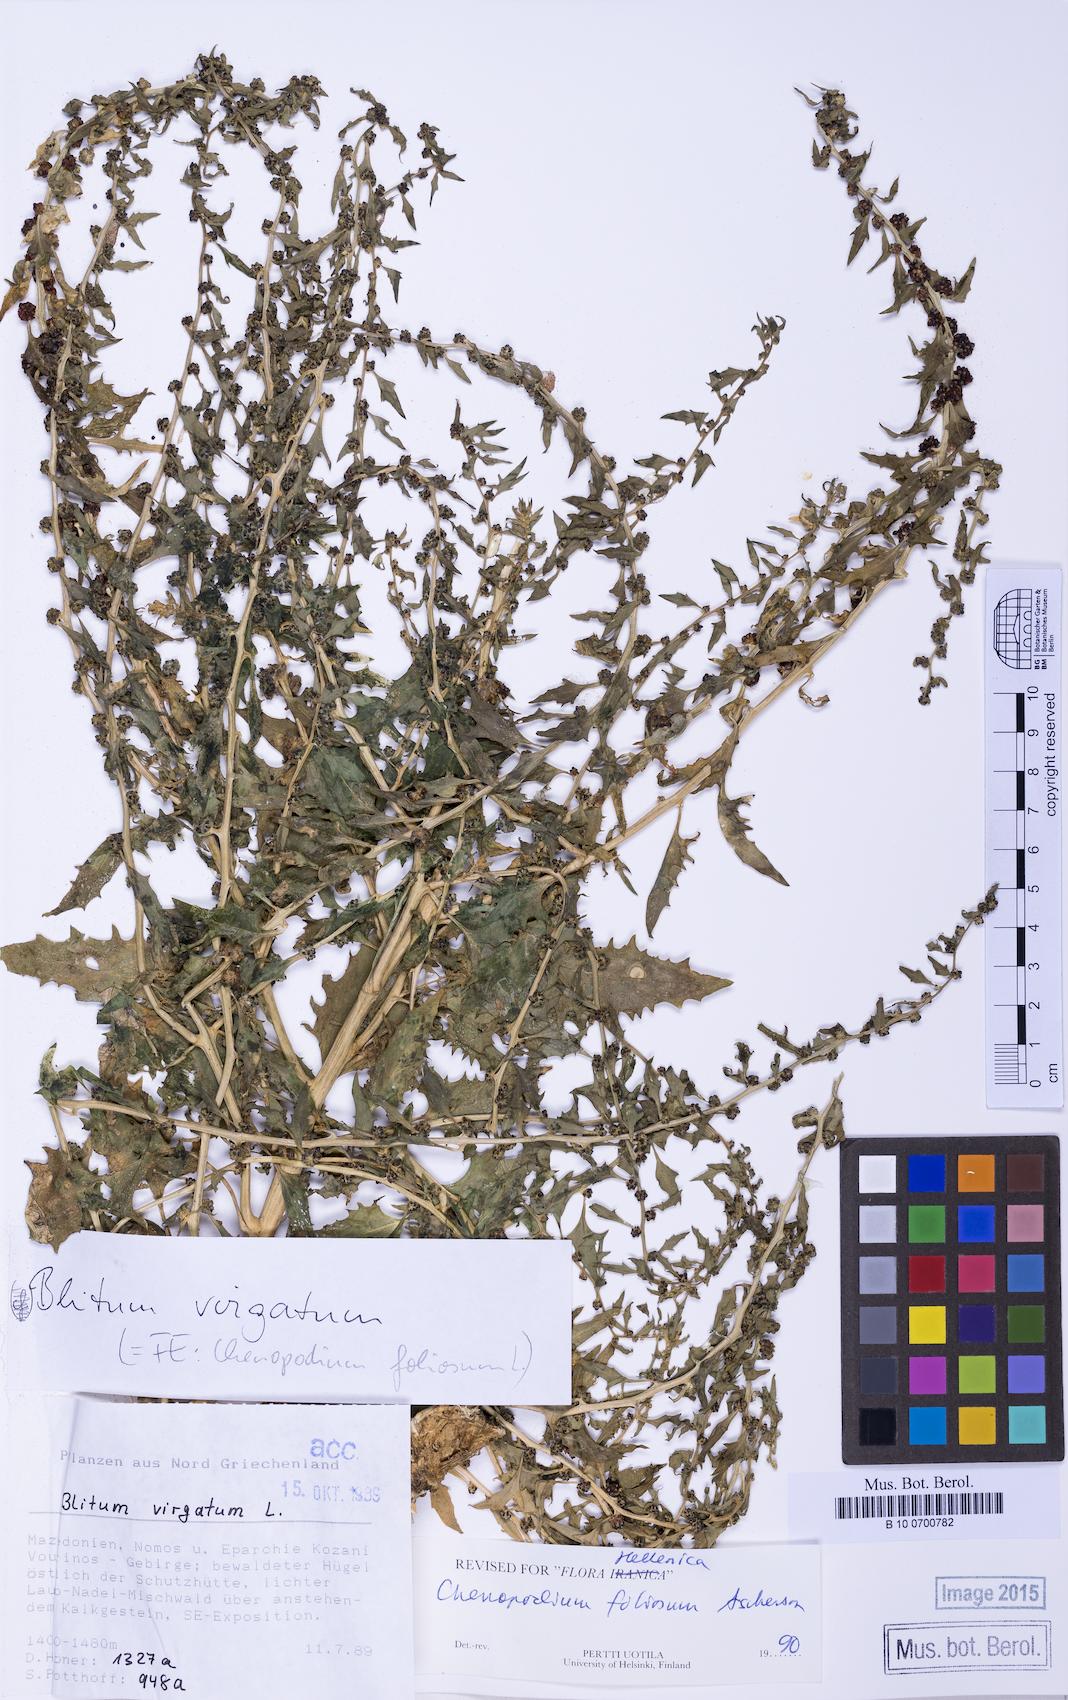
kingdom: Plantae
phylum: Tracheophyta
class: Magnoliopsida
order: Caryophyllales
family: Amaranthaceae
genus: Blitum
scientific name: Blitum virgatum
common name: Strawberry goosefoot
